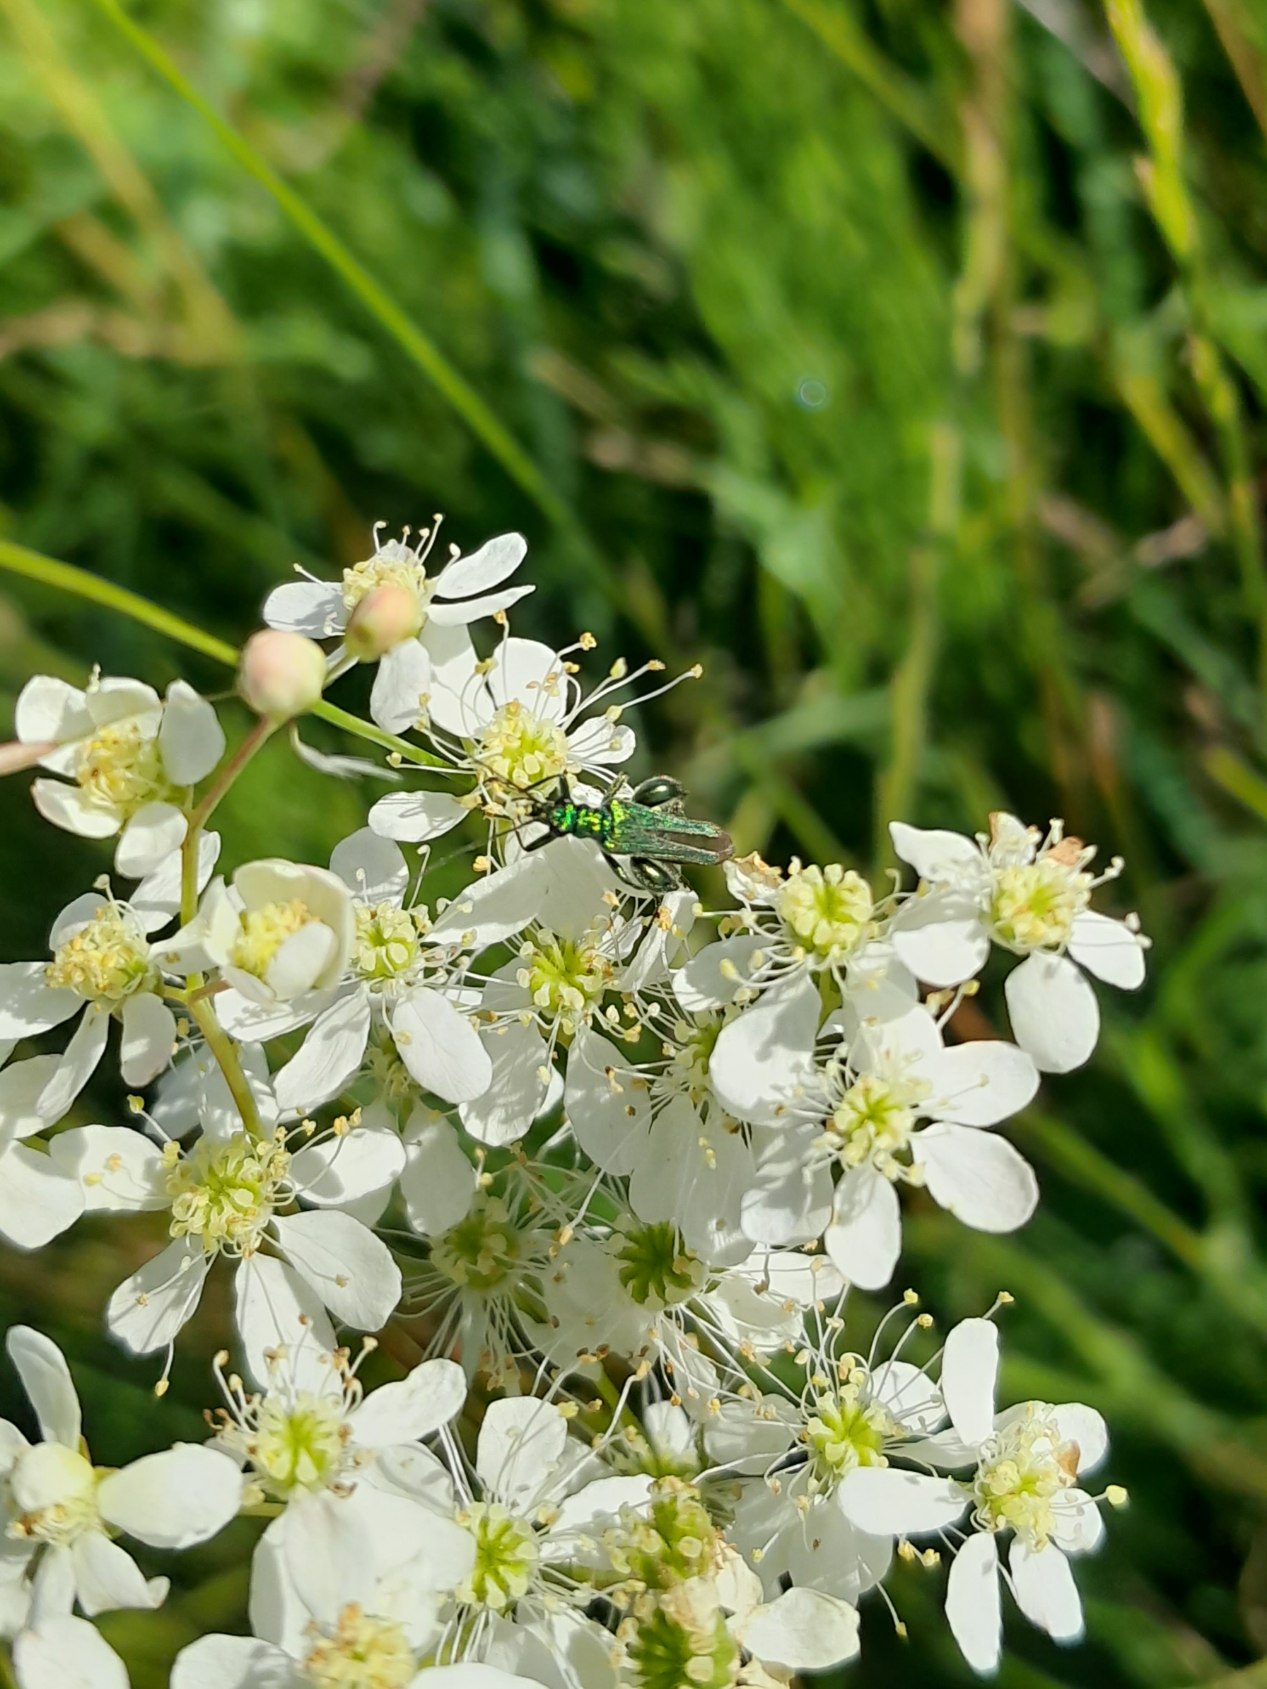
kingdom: Animalia
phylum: Arthropoda
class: Insecta
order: Coleoptera
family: Oedemeridae
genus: Oedemera
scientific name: Oedemera nobilis
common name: Tyklårssolbille
